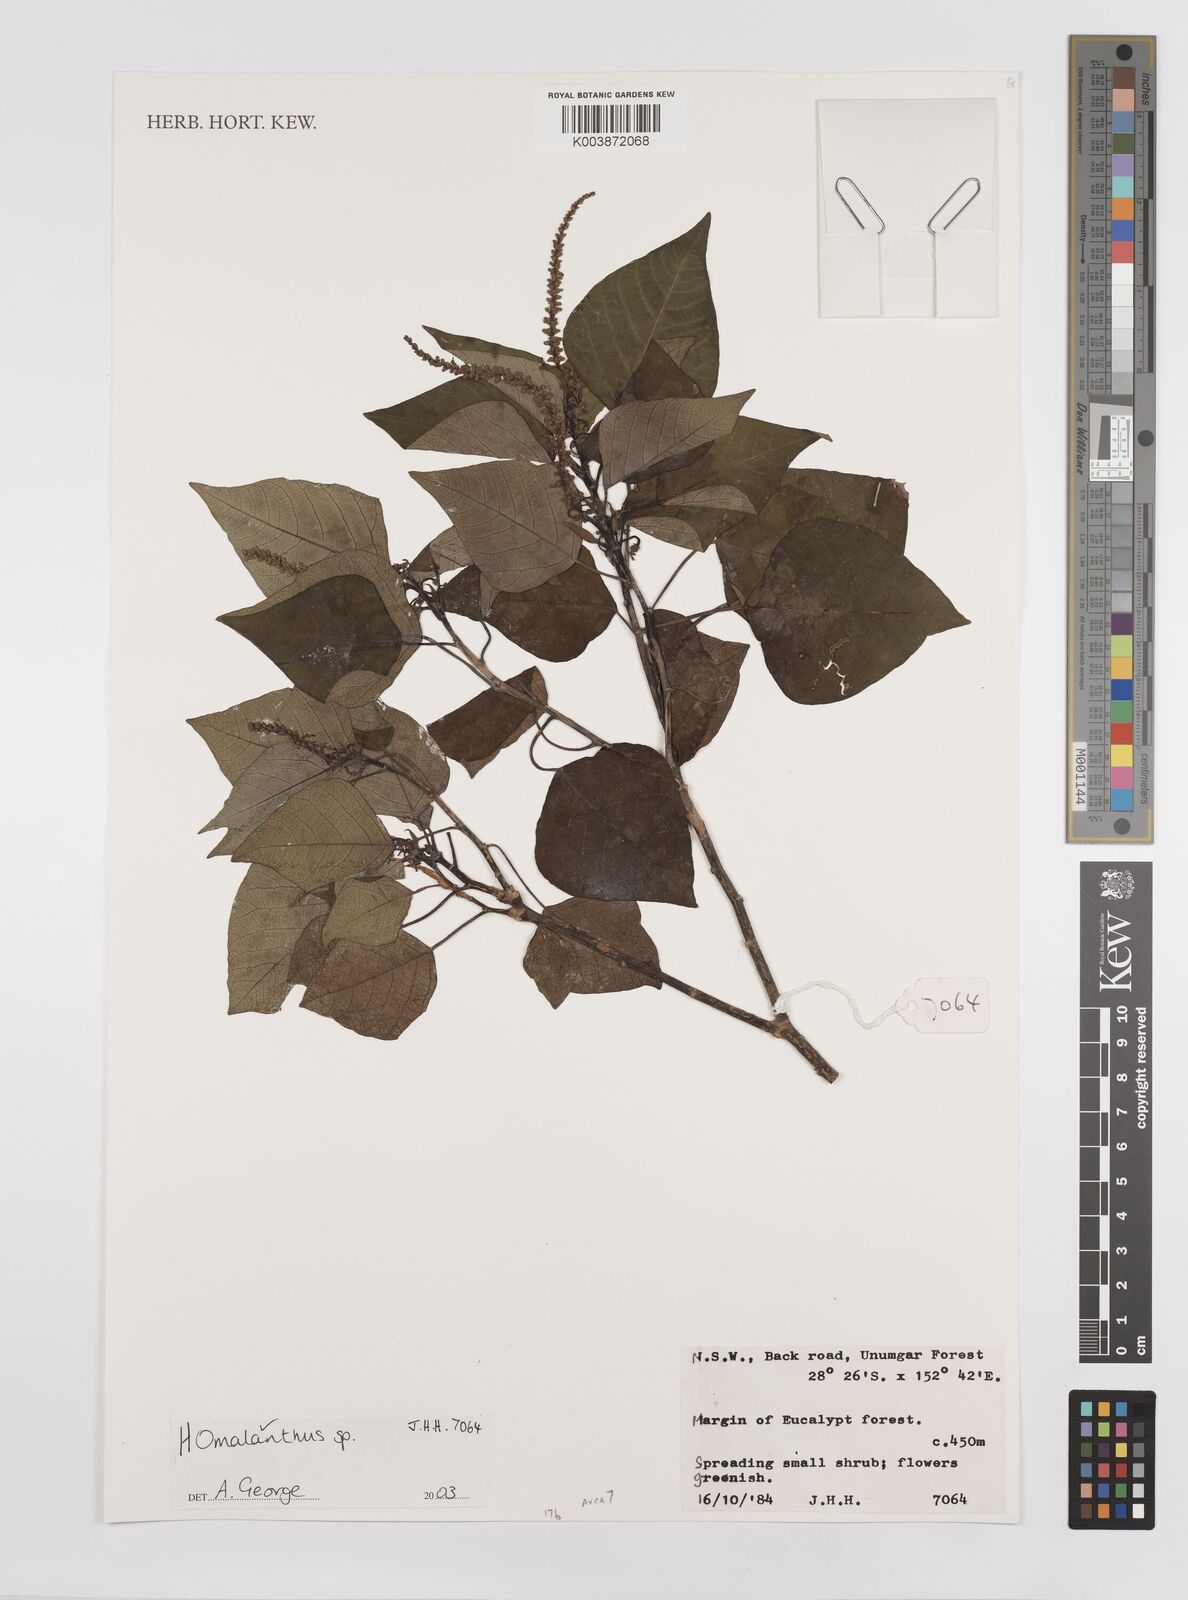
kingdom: Plantae
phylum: Tracheophyta
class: Magnoliopsida
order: Malpighiales
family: Euphorbiaceae
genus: Homalanthus
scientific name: Homalanthus
